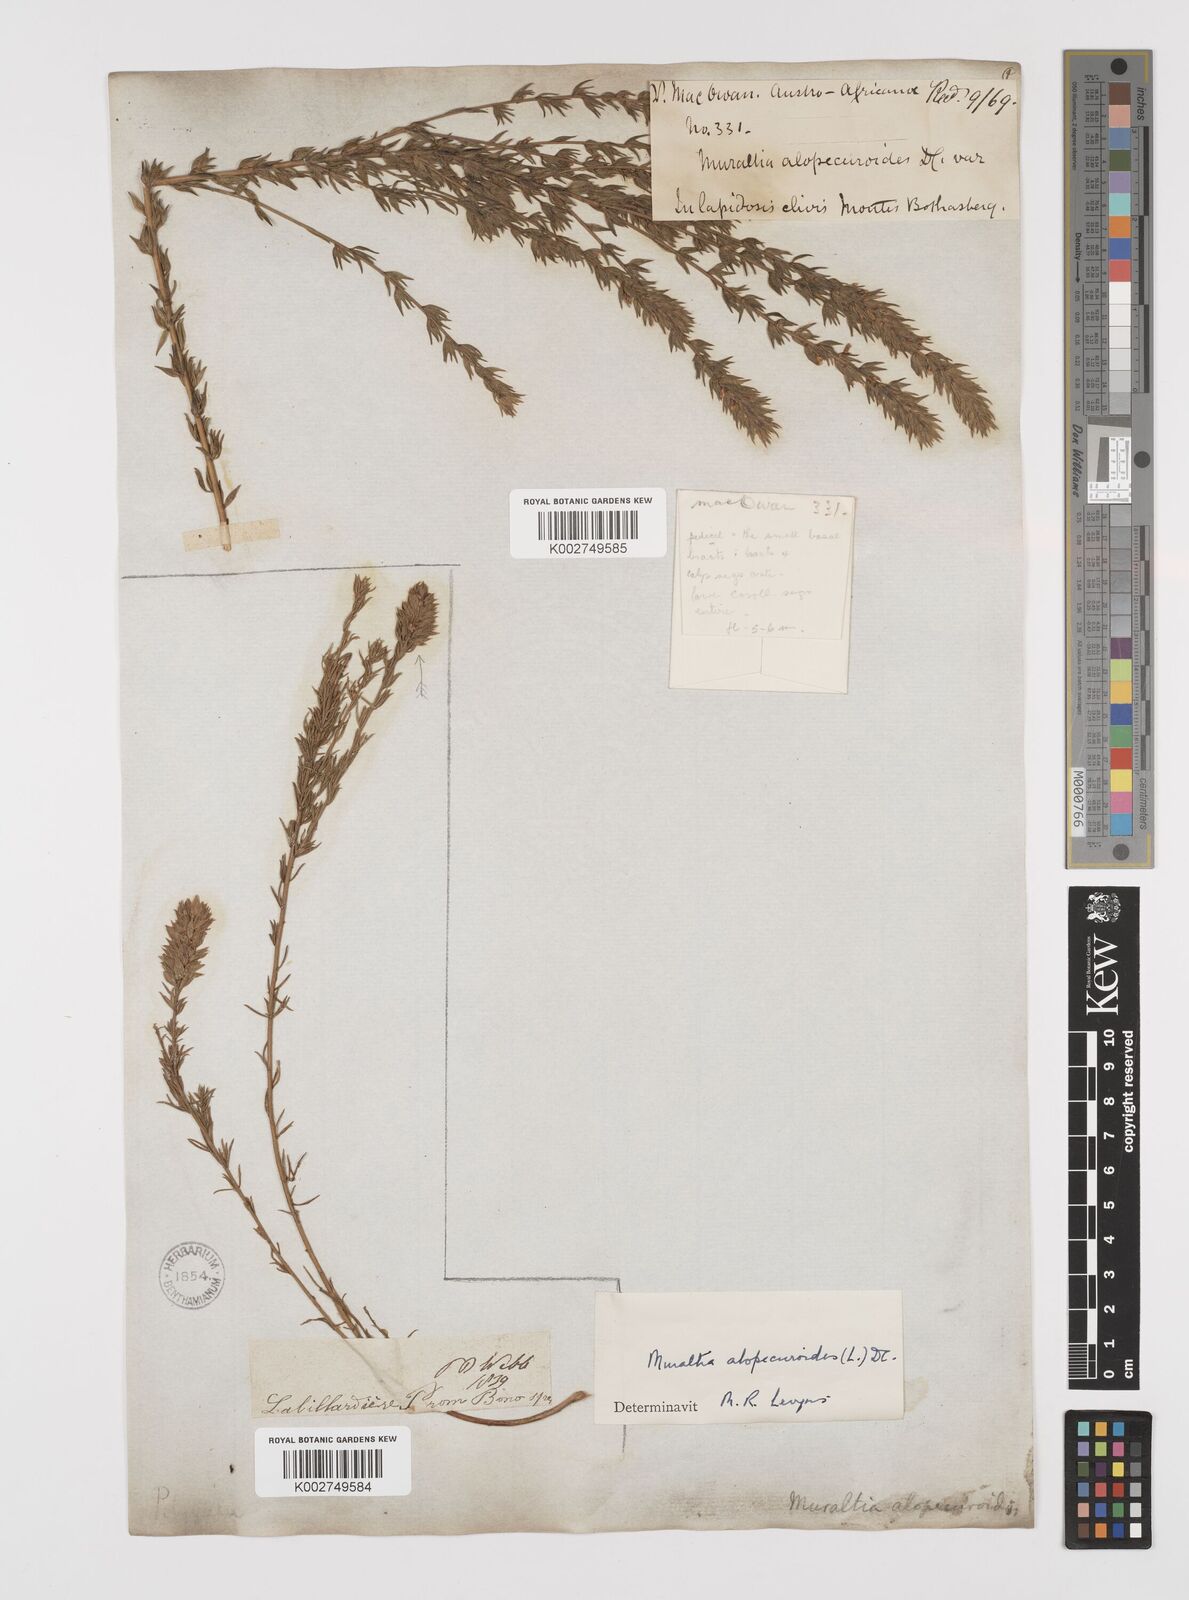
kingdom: Plantae
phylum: Tracheophyta
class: Magnoliopsida
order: Fabales
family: Polygalaceae
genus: Muraltia
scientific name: Muraltia alopecuroides
